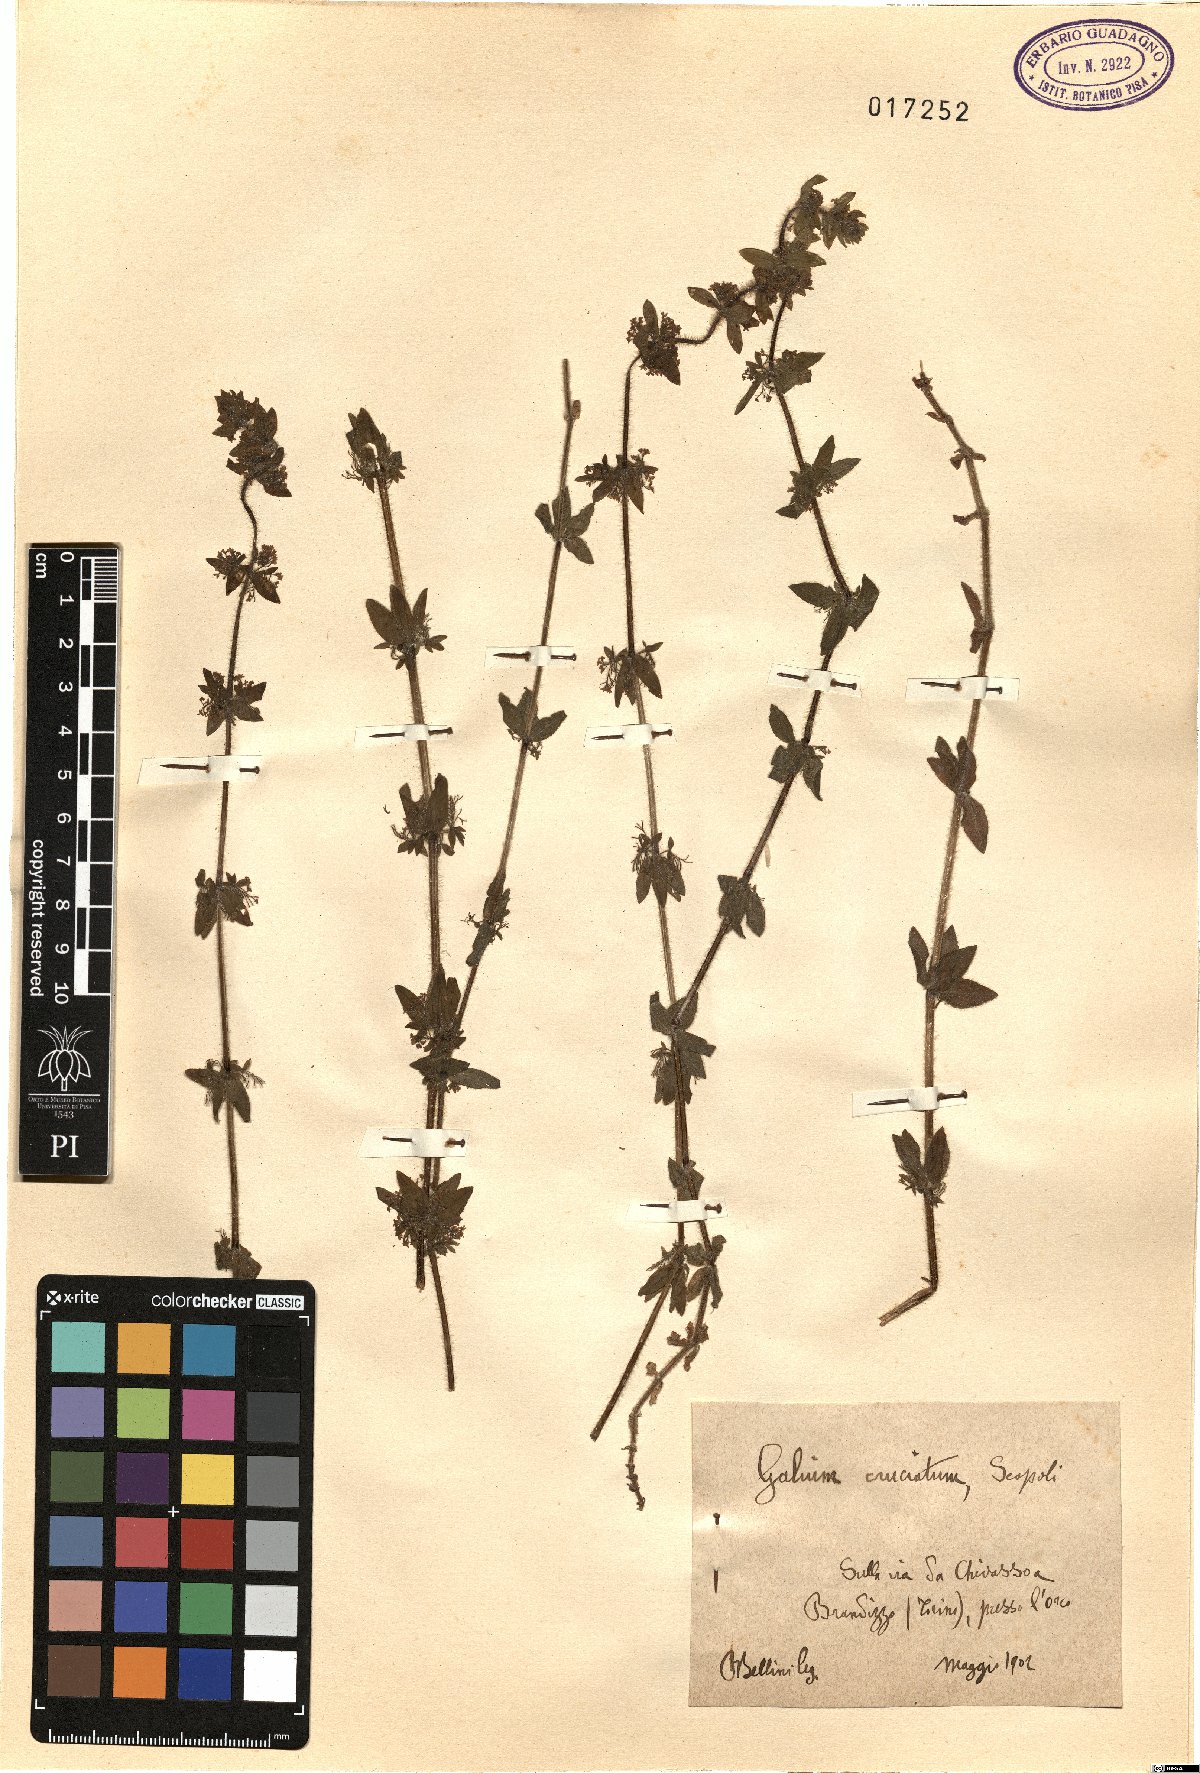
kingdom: Plantae
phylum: Tracheophyta
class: Magnoliopsida
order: Gentianales
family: Rubiaceae
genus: Cruciata
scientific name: Cruciata laevipes
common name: Crosswort
